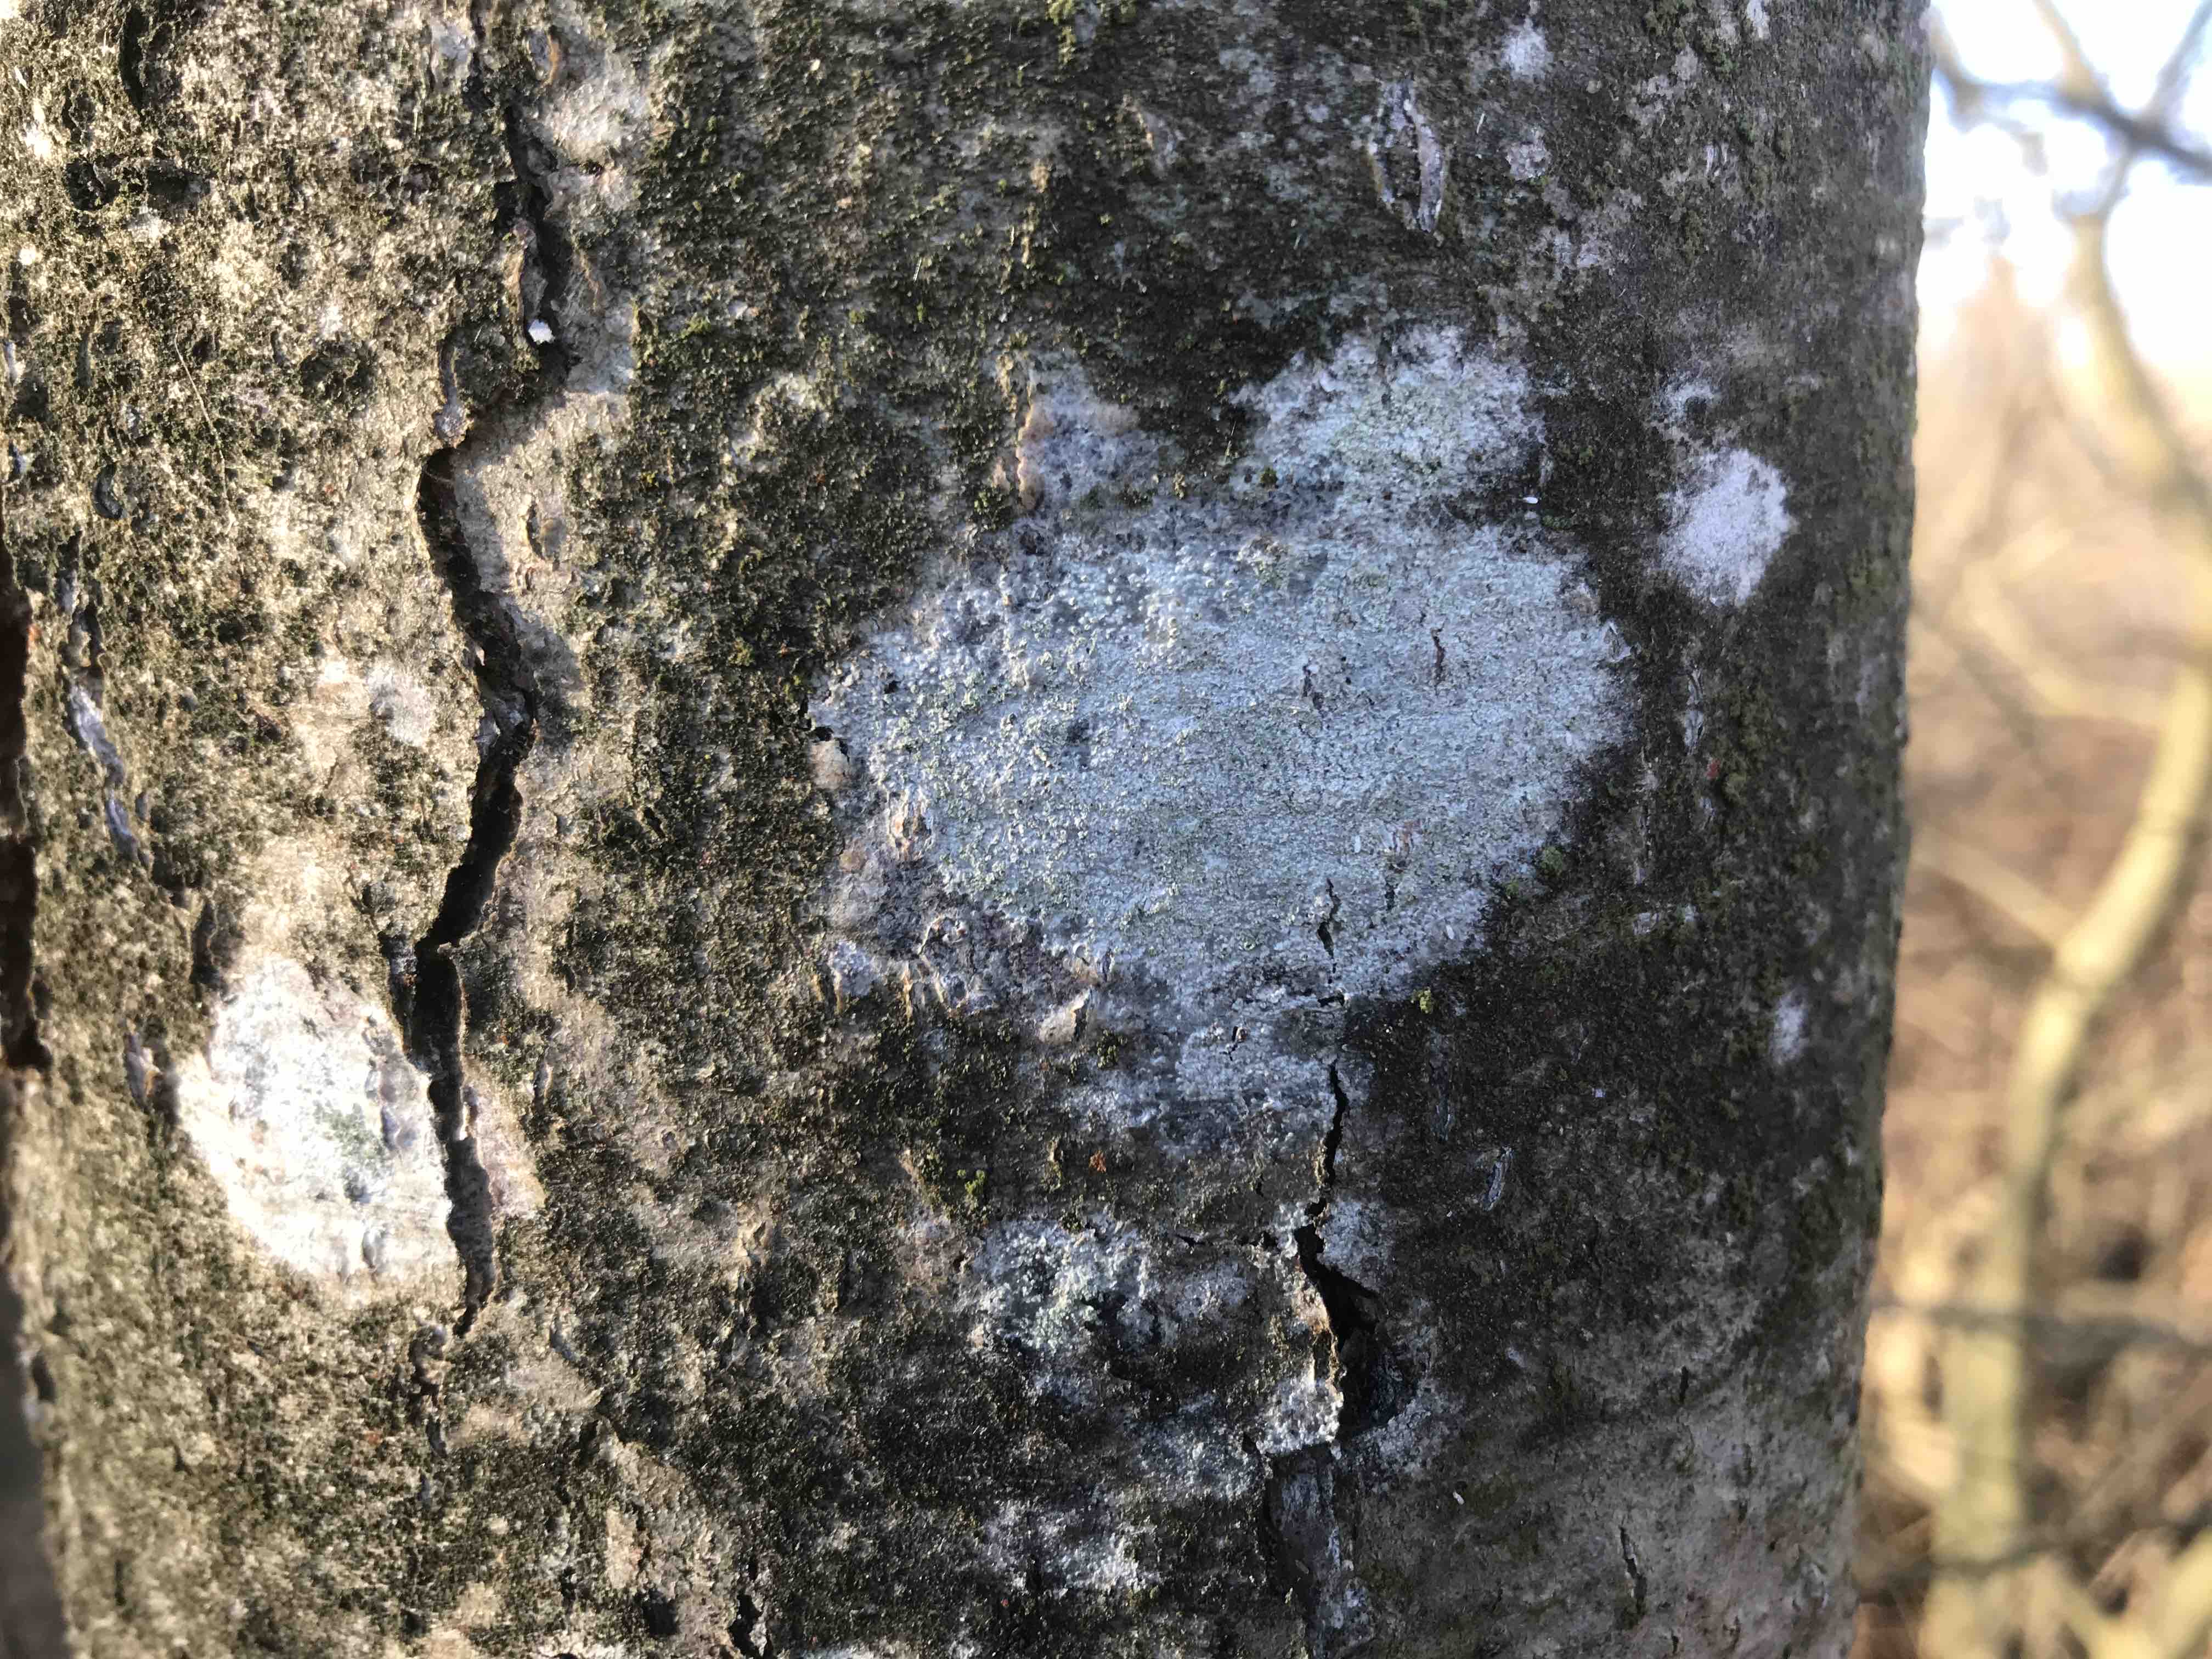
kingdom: Fungi
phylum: Ascomycota
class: Lecanoromycetes
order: Ostropales
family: Phlyctidaceae
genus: Phlyctis
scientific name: Phlyctis argena
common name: almindelig sølvlav
